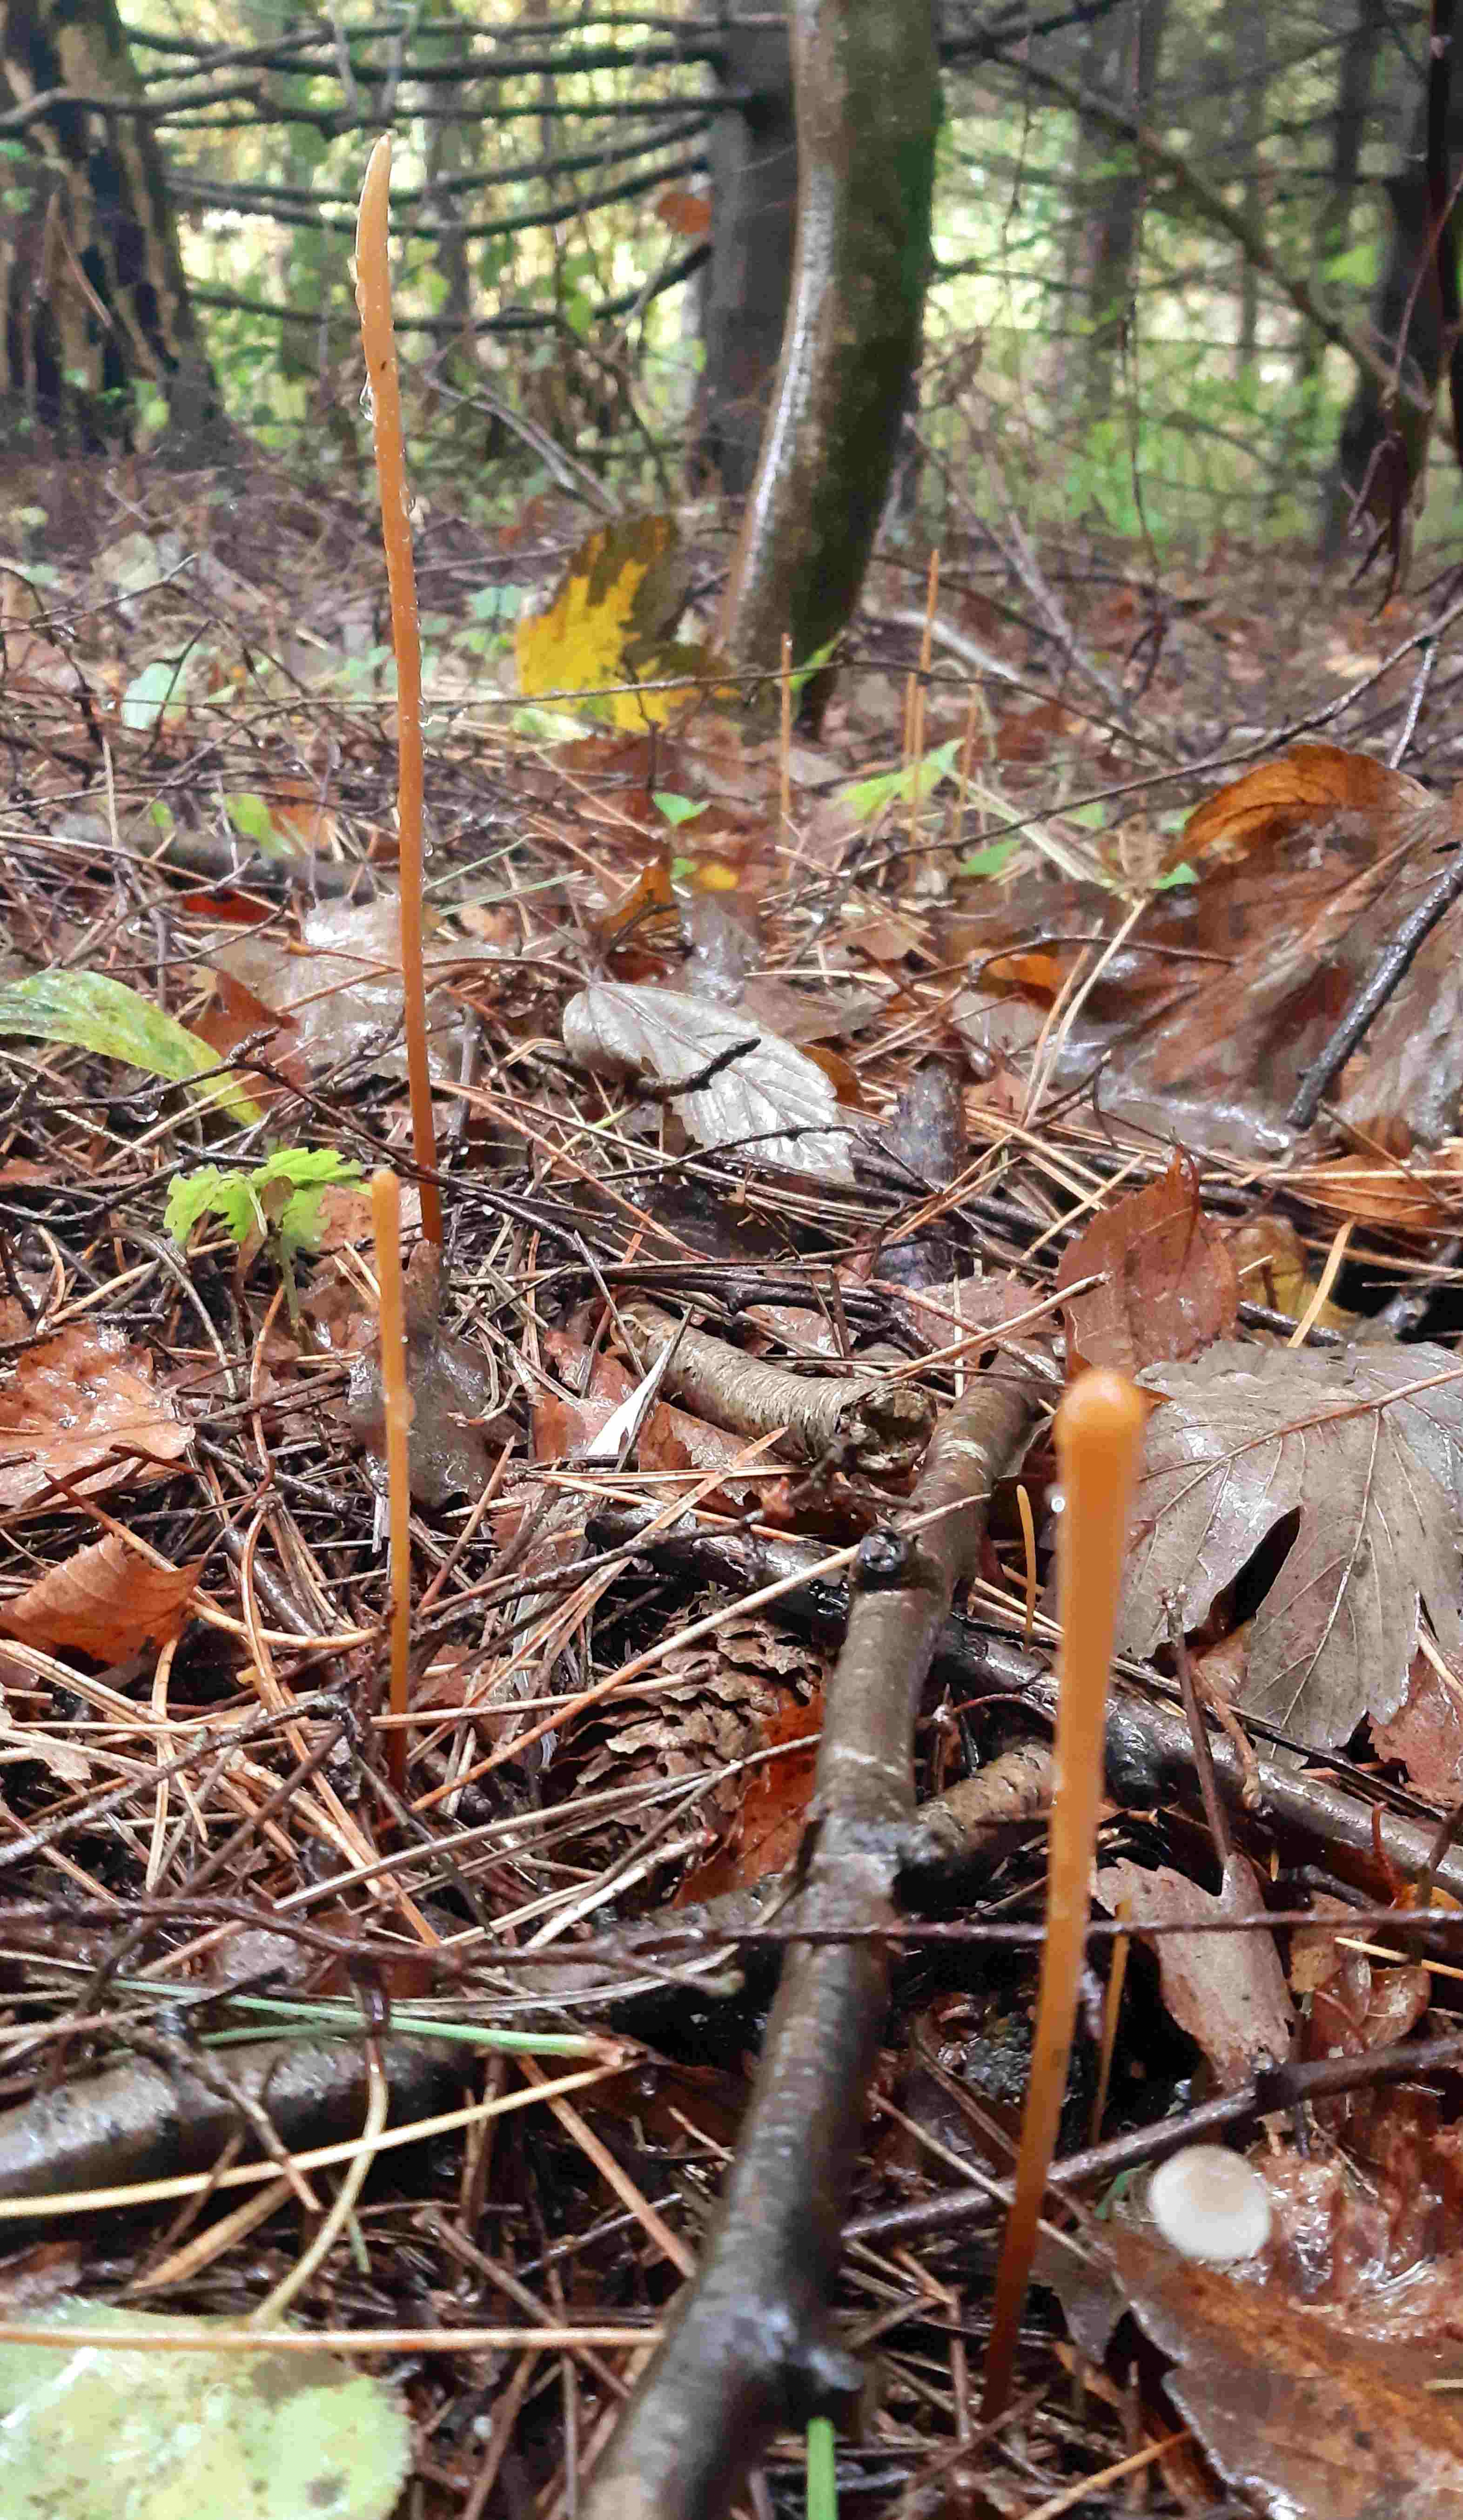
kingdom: Fungi
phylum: Basidiomycota
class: Agaricomycetes
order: Agaricales
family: Typhulaceae
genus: Typhula
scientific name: Typhula fistulosa
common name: pibet rørkølle
